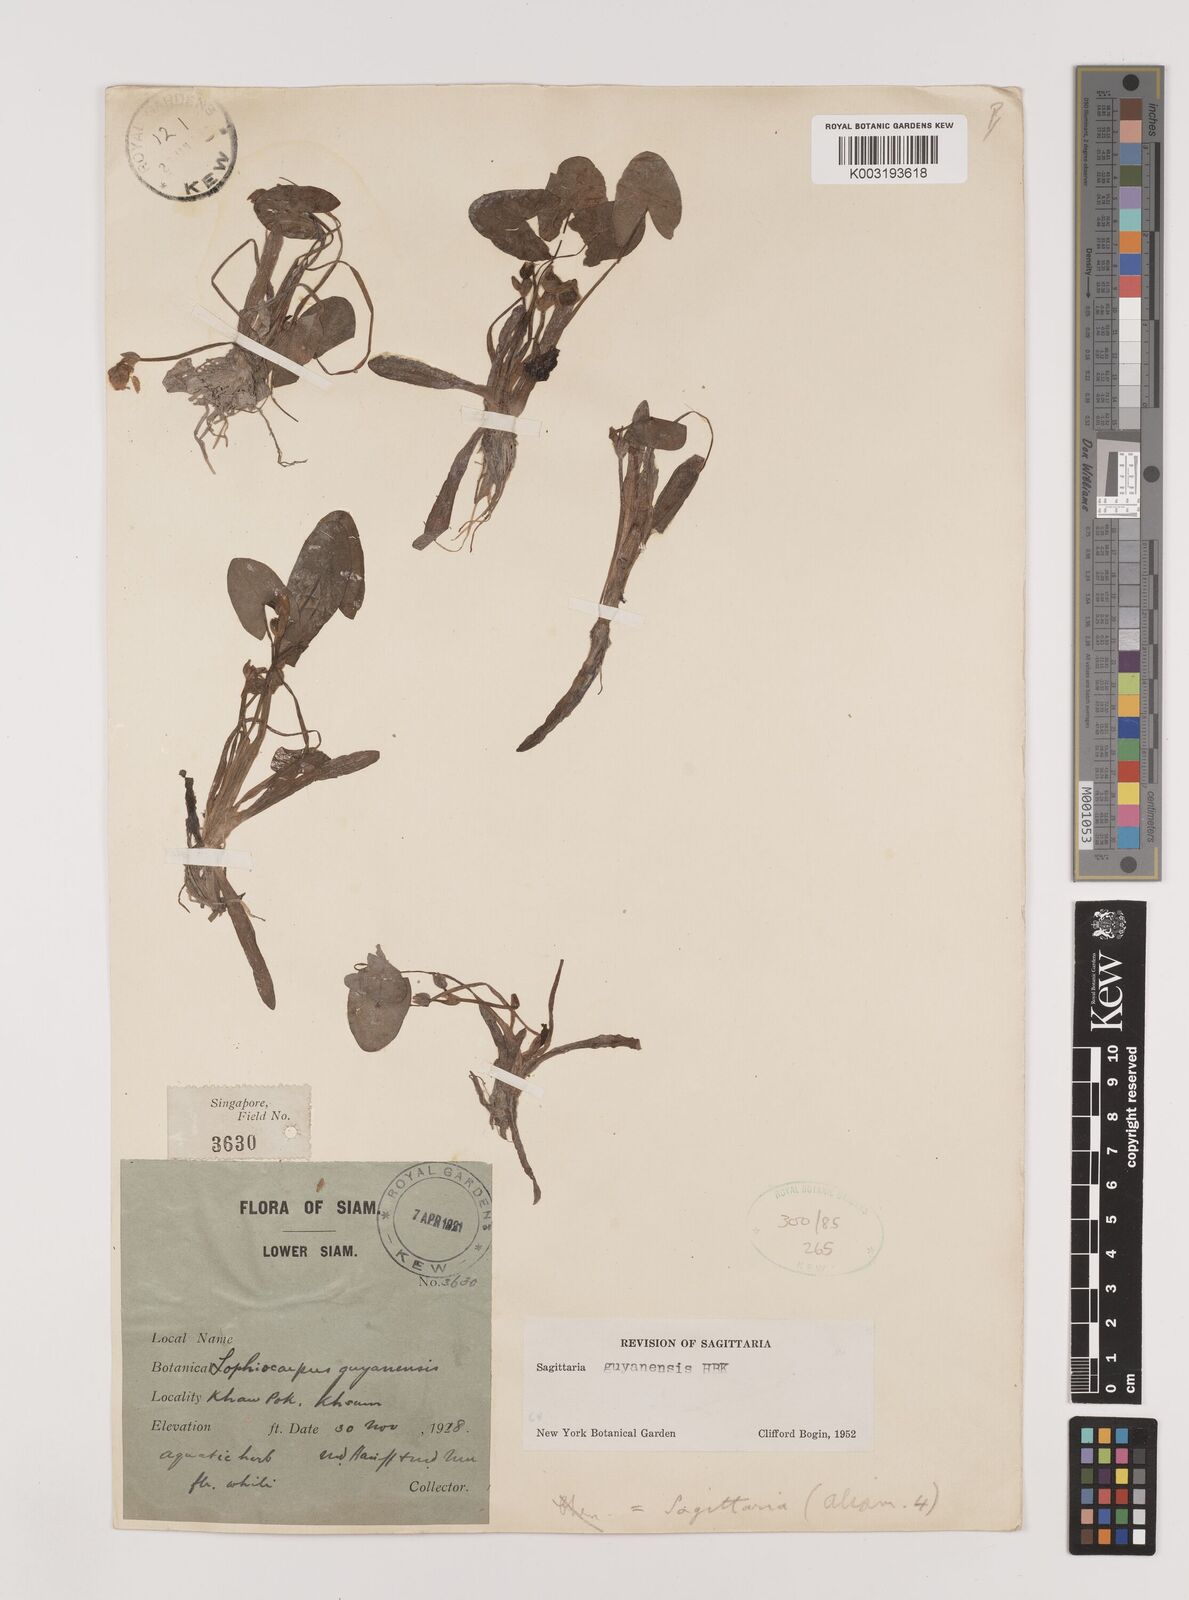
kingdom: Plantae
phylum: Tracheophyta
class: Liliopsida
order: Alismatales
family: Alismataceae
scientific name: Alismataceae
